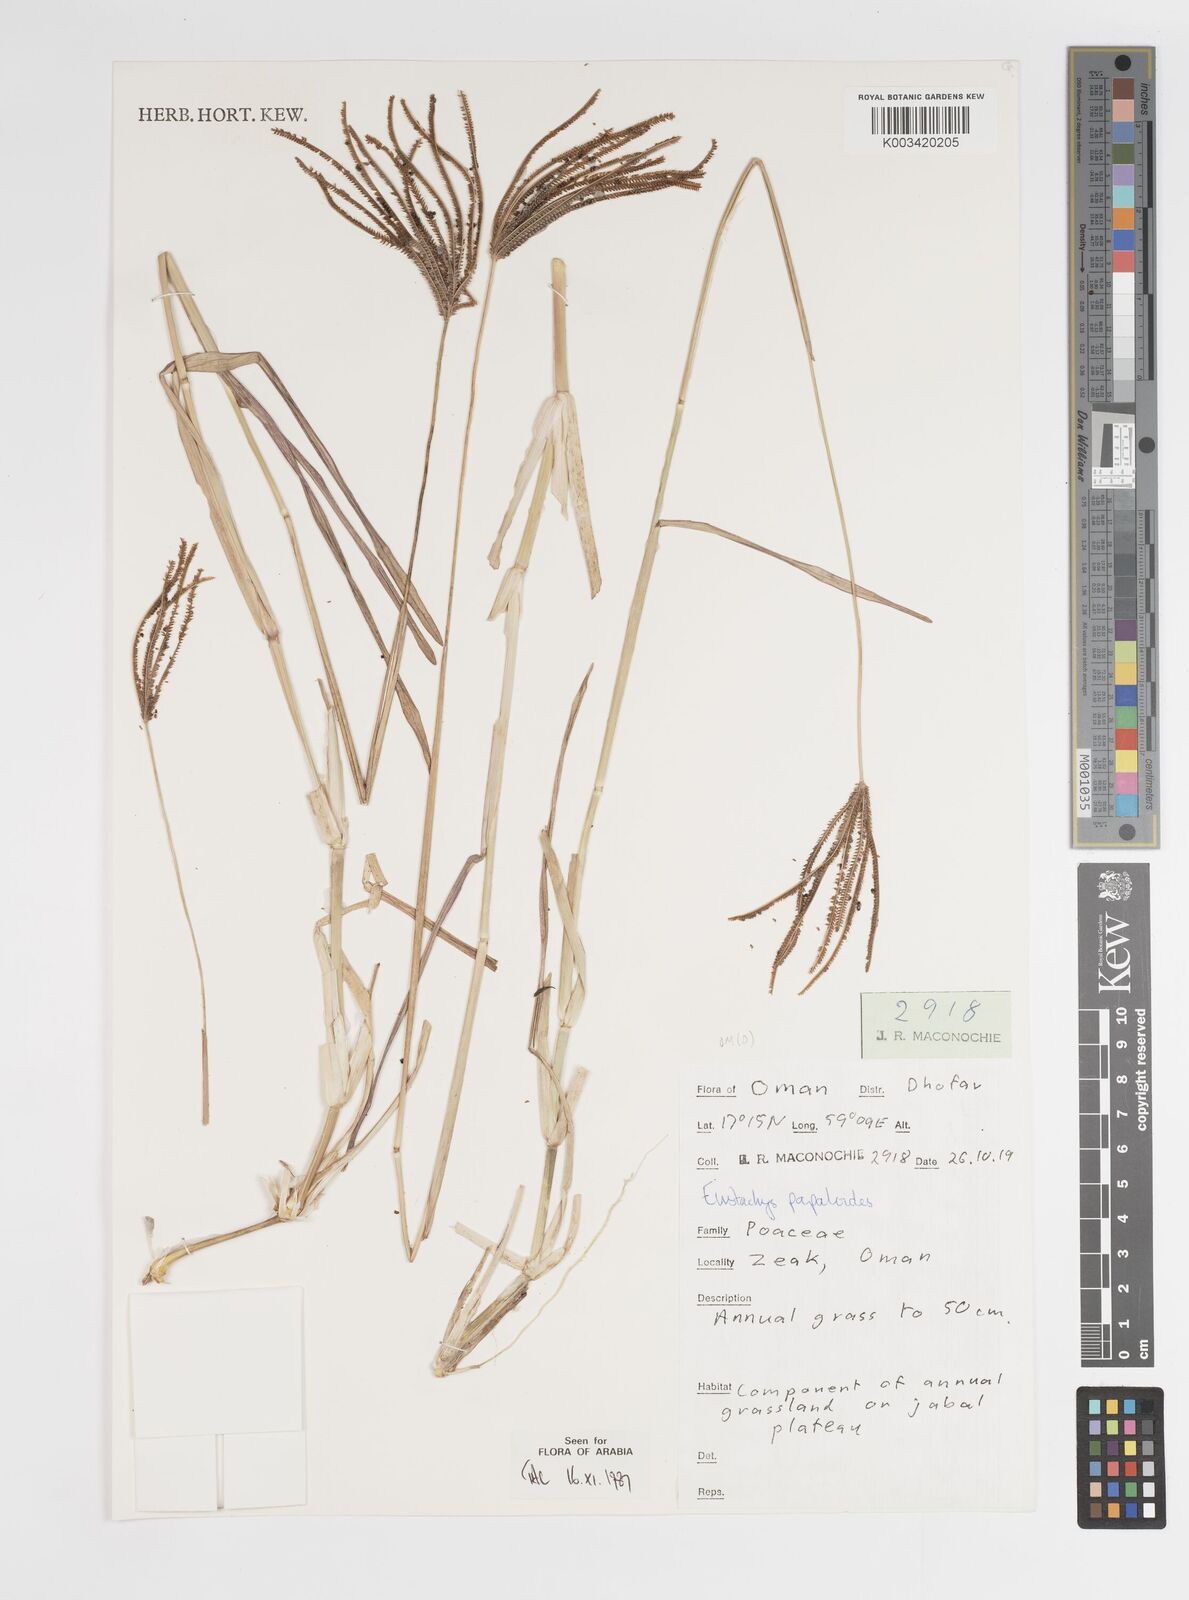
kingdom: Plantae
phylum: Tracheophyta
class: Liliopsida
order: Poales
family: Poaceae
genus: Eustachys
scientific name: Eustachys paspaloides
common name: Caribbean fingergrass
